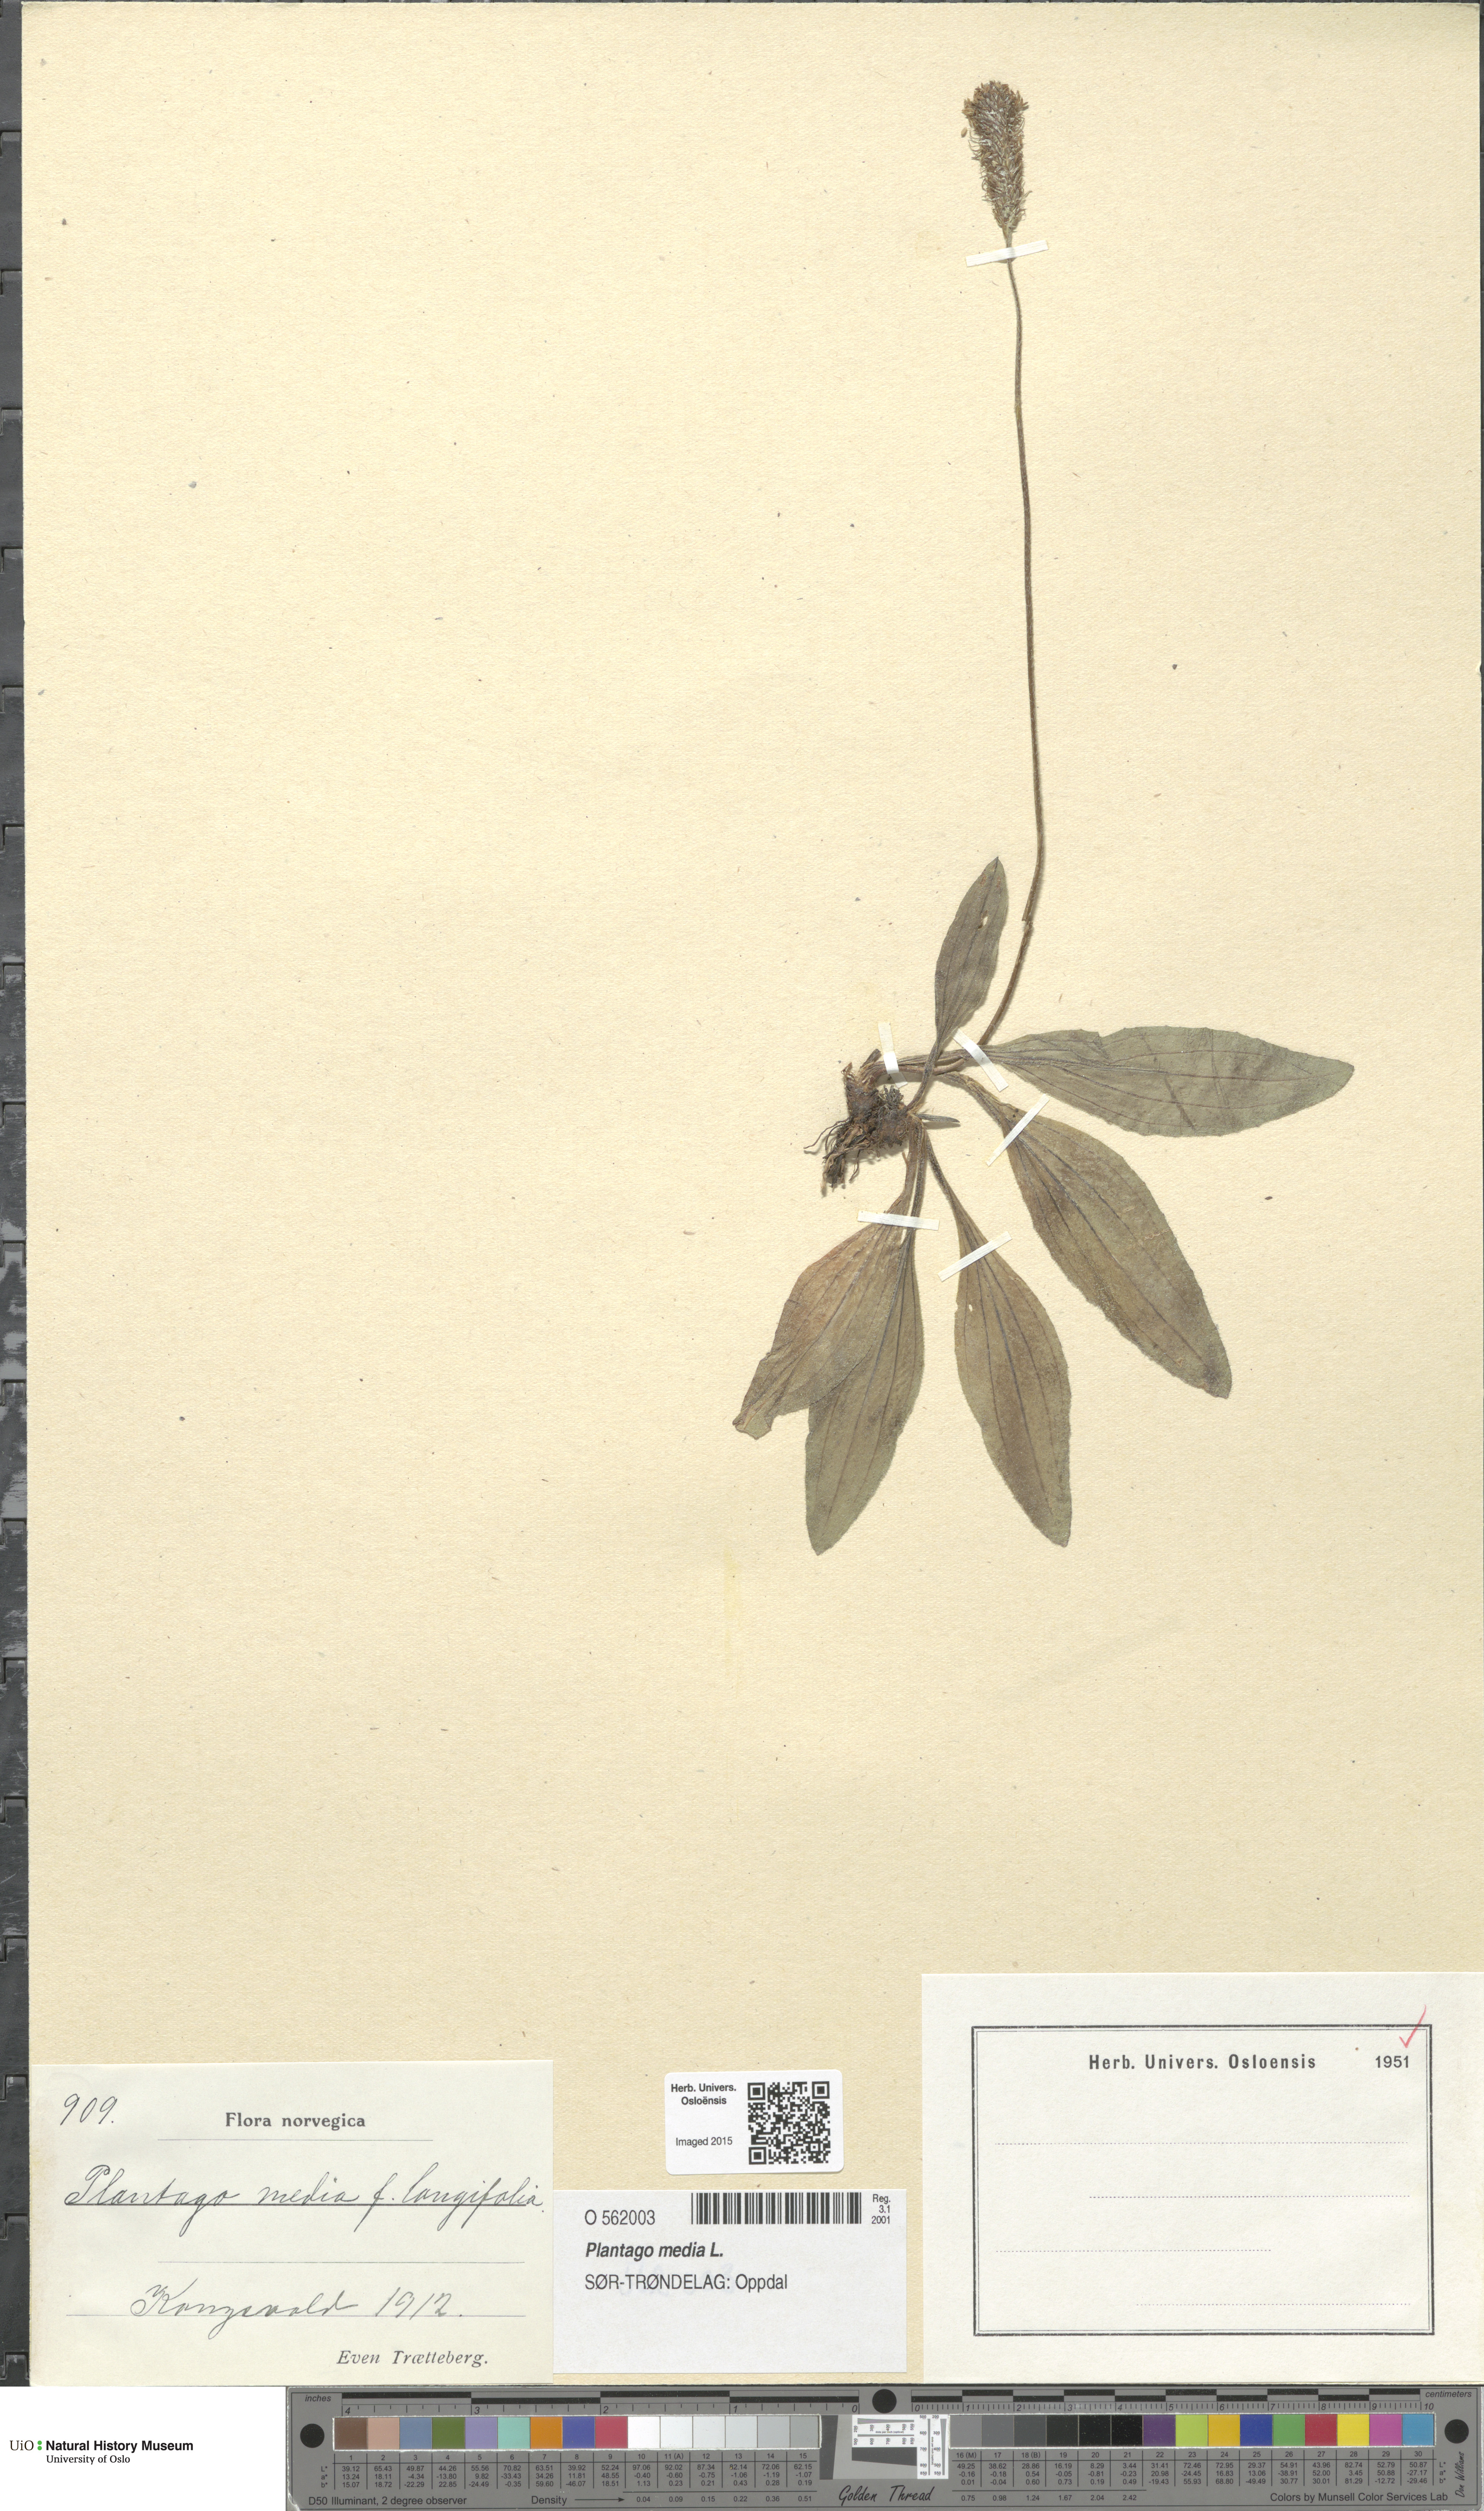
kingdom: Plantae
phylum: Tracheophyta
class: Magnoliopsida
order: Lamiales
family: Plantaginaceae
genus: Plantago
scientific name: Plantago media
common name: Hoary plantain
